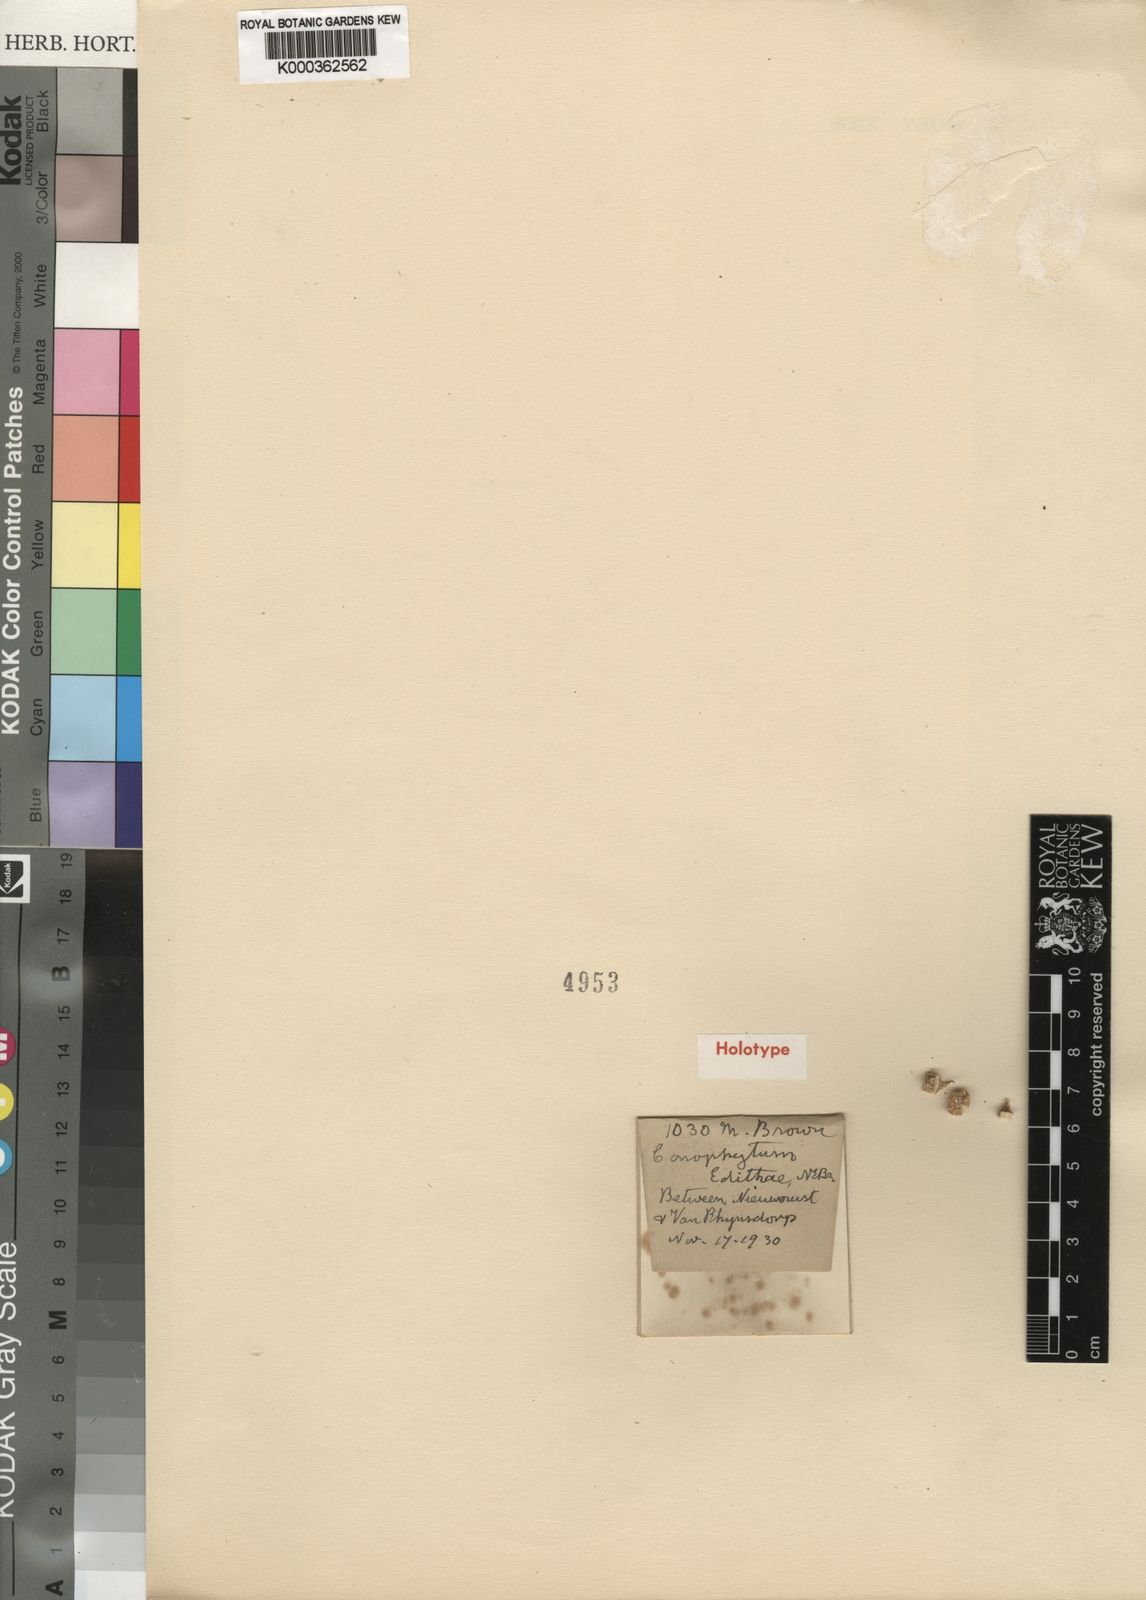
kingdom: Plantae
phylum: Tracheophyta
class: Magnoliopsida
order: Caryophyllales
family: Aizoaceae
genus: Conophytum
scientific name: Conophytum subfenestratum
